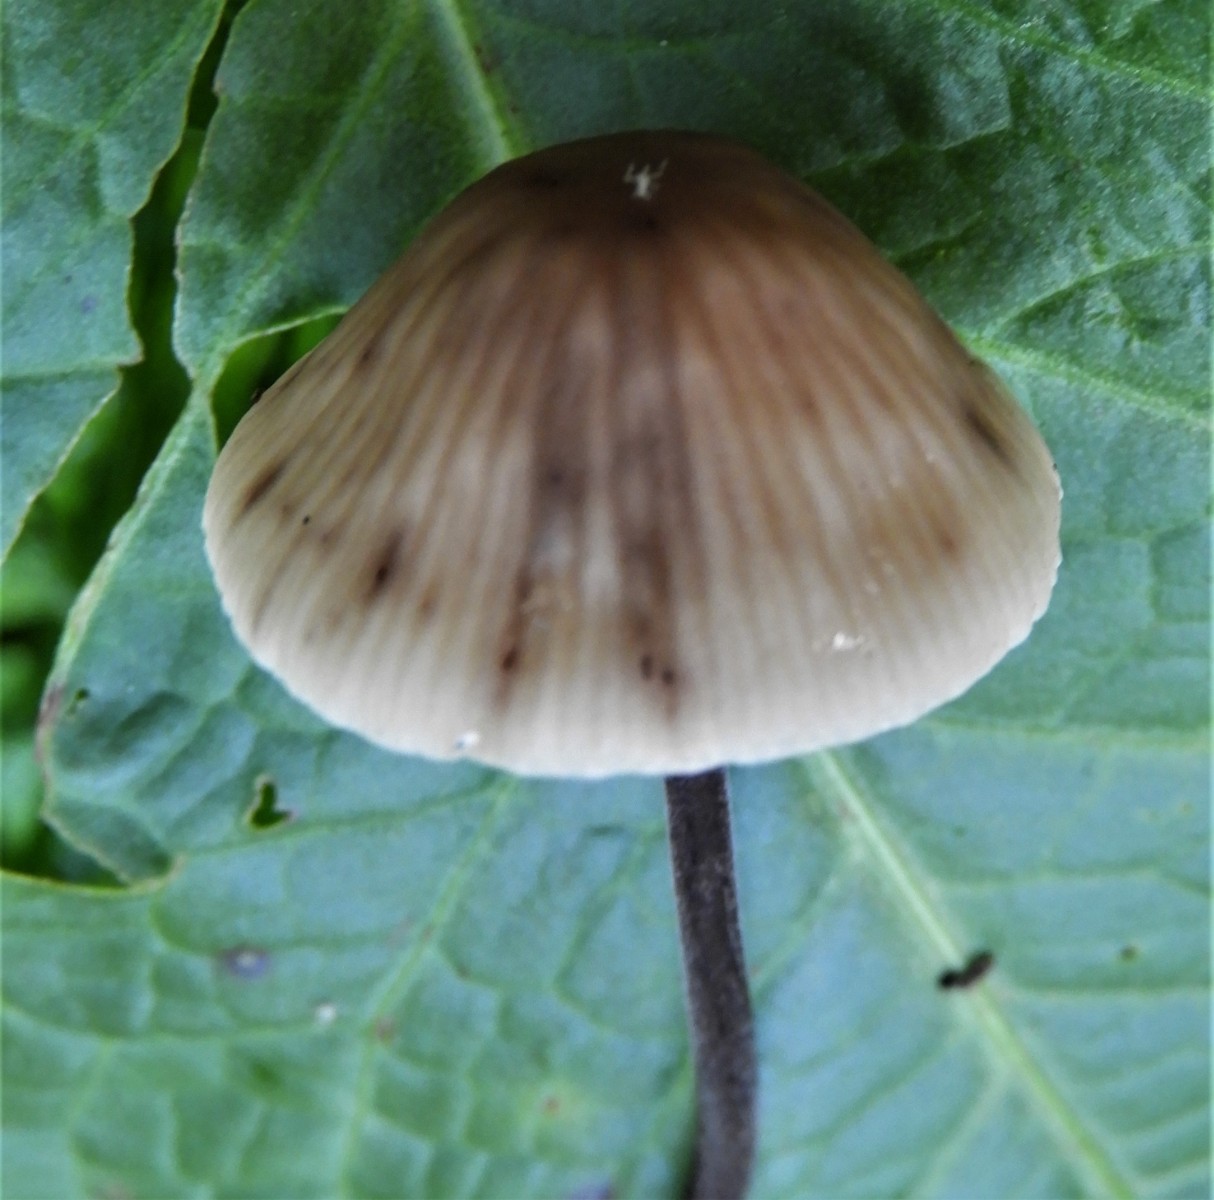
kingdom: Fungi
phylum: Basidiomycota
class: Agaricomycetes
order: Agaricales
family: Omphalotaceae
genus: Mycetinis
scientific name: Mycetinis alliaceus
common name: stor løghat
